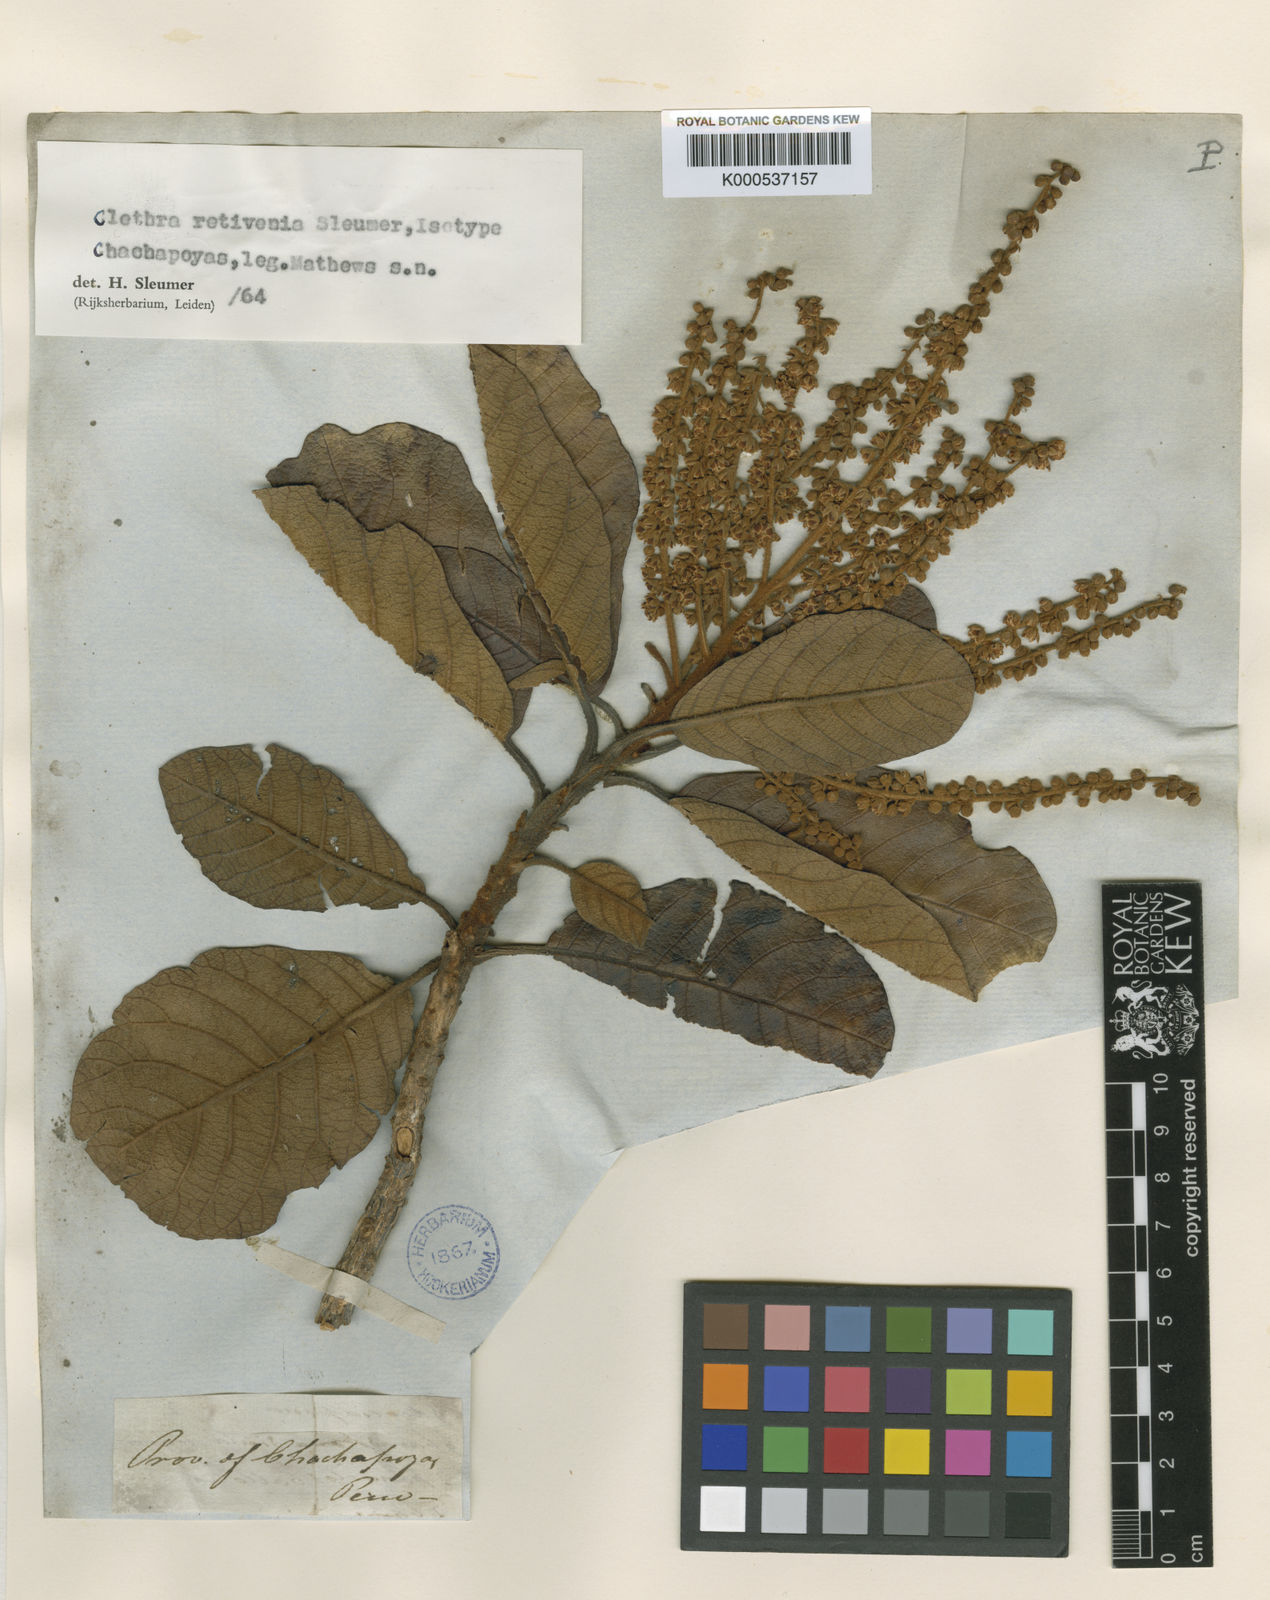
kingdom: Plantae
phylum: Tracheophyta
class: Magnoliopsida
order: Ericales
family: Clethraceae
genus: Clethra
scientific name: Clethra retivenia
